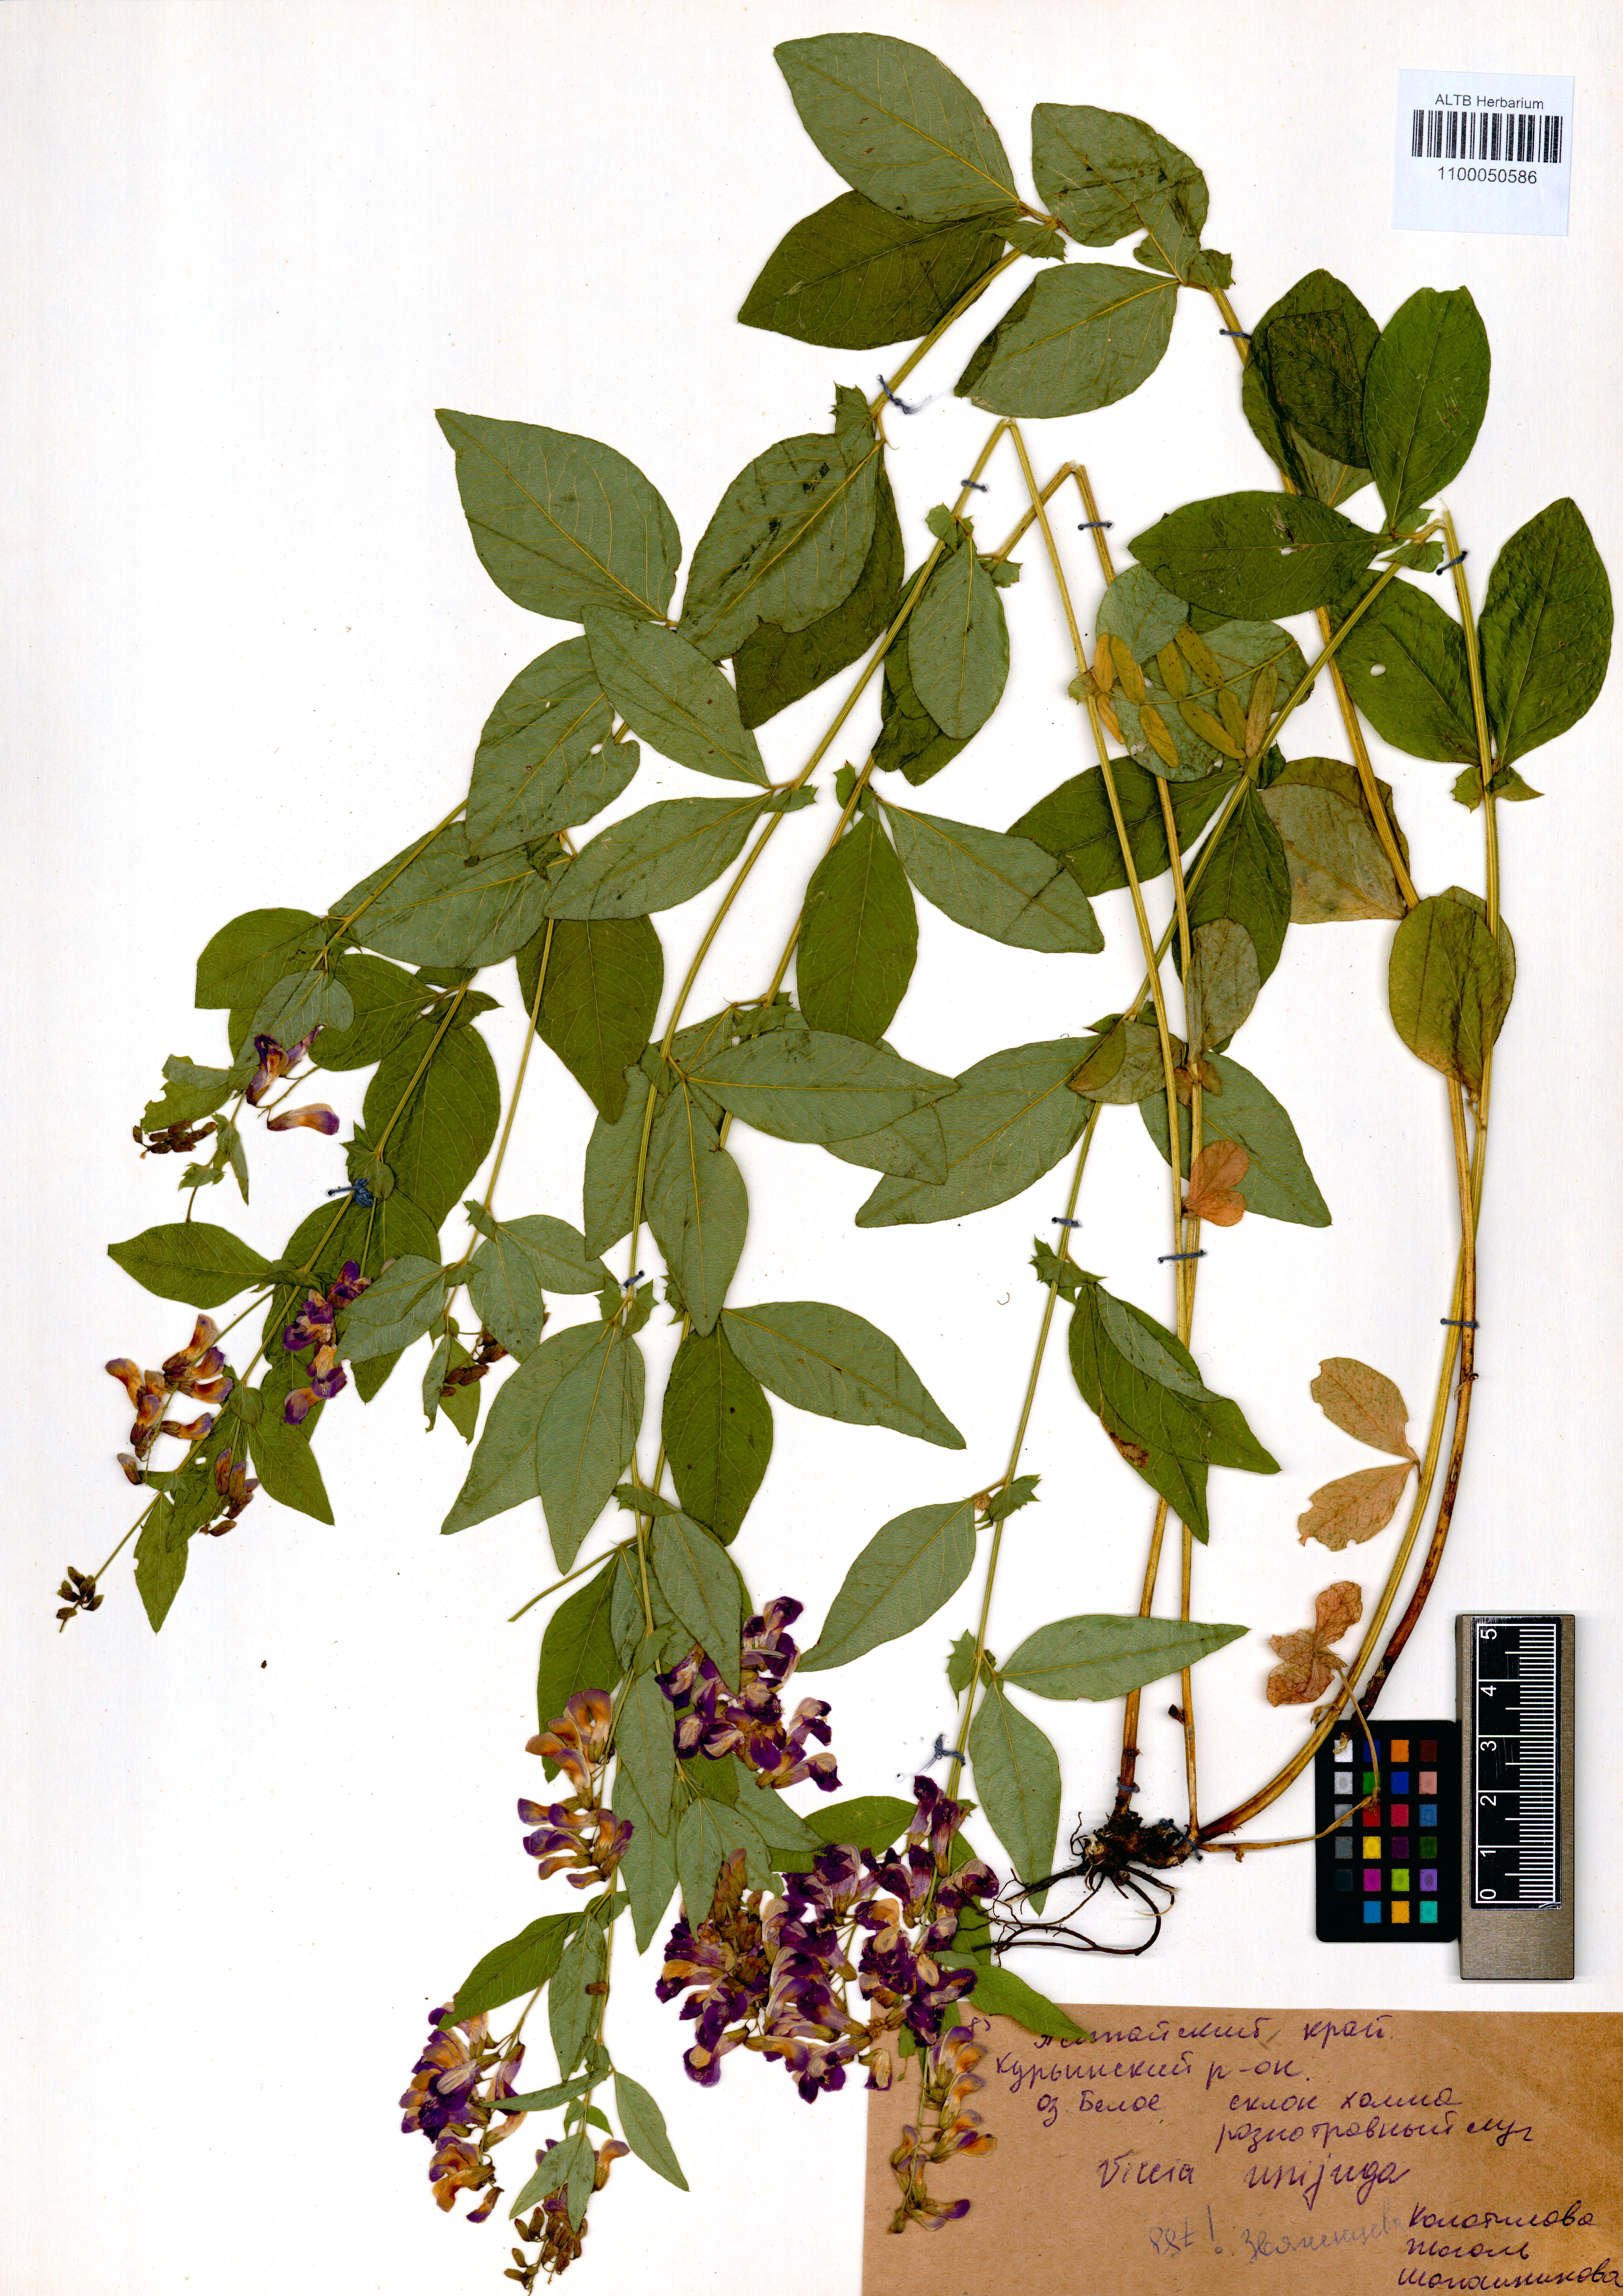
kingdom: Plantae
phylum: Tracheophyta
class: Magnoliopsida
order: Fabales
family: Fabaceae
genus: Vicia
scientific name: Vicia unijuga
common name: Two-leaf vetch
